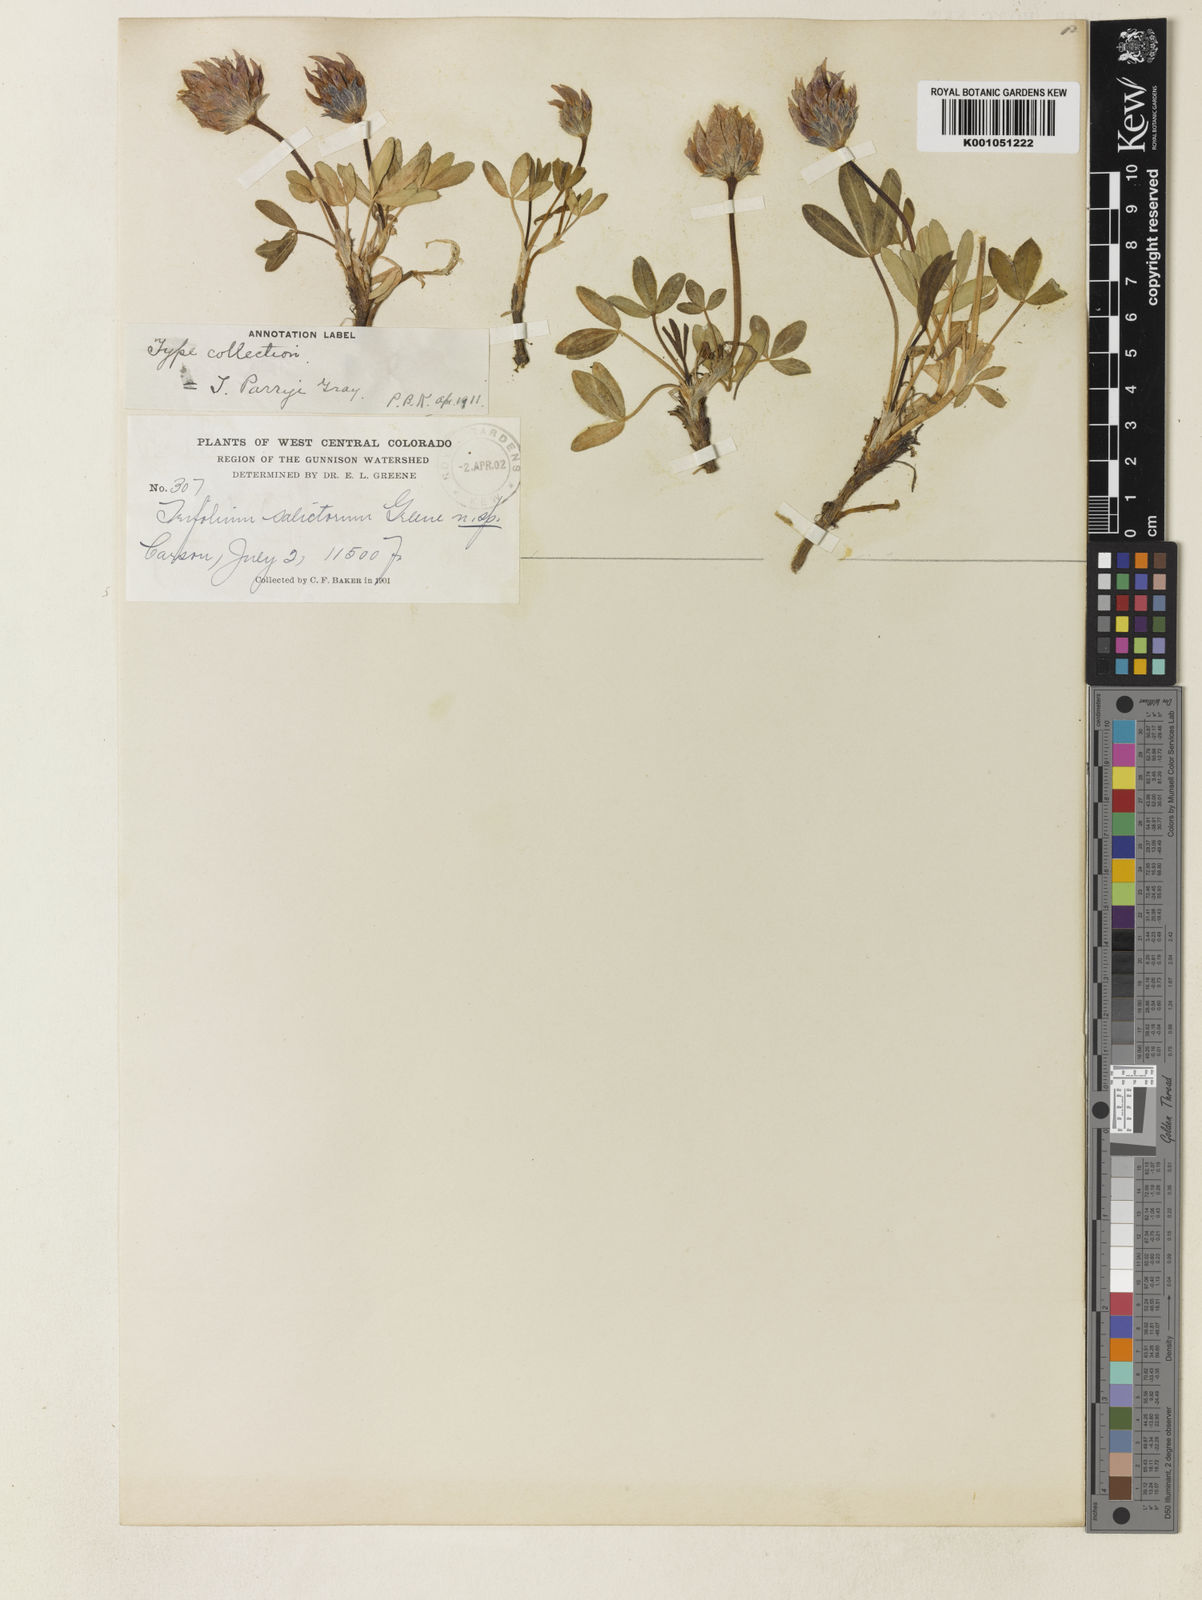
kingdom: Plantae
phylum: Tracheophyta
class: Magnoliopsida
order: Fabales
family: Fabaceae
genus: Trifolium
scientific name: Trifolium parryi
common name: Parry's clover
